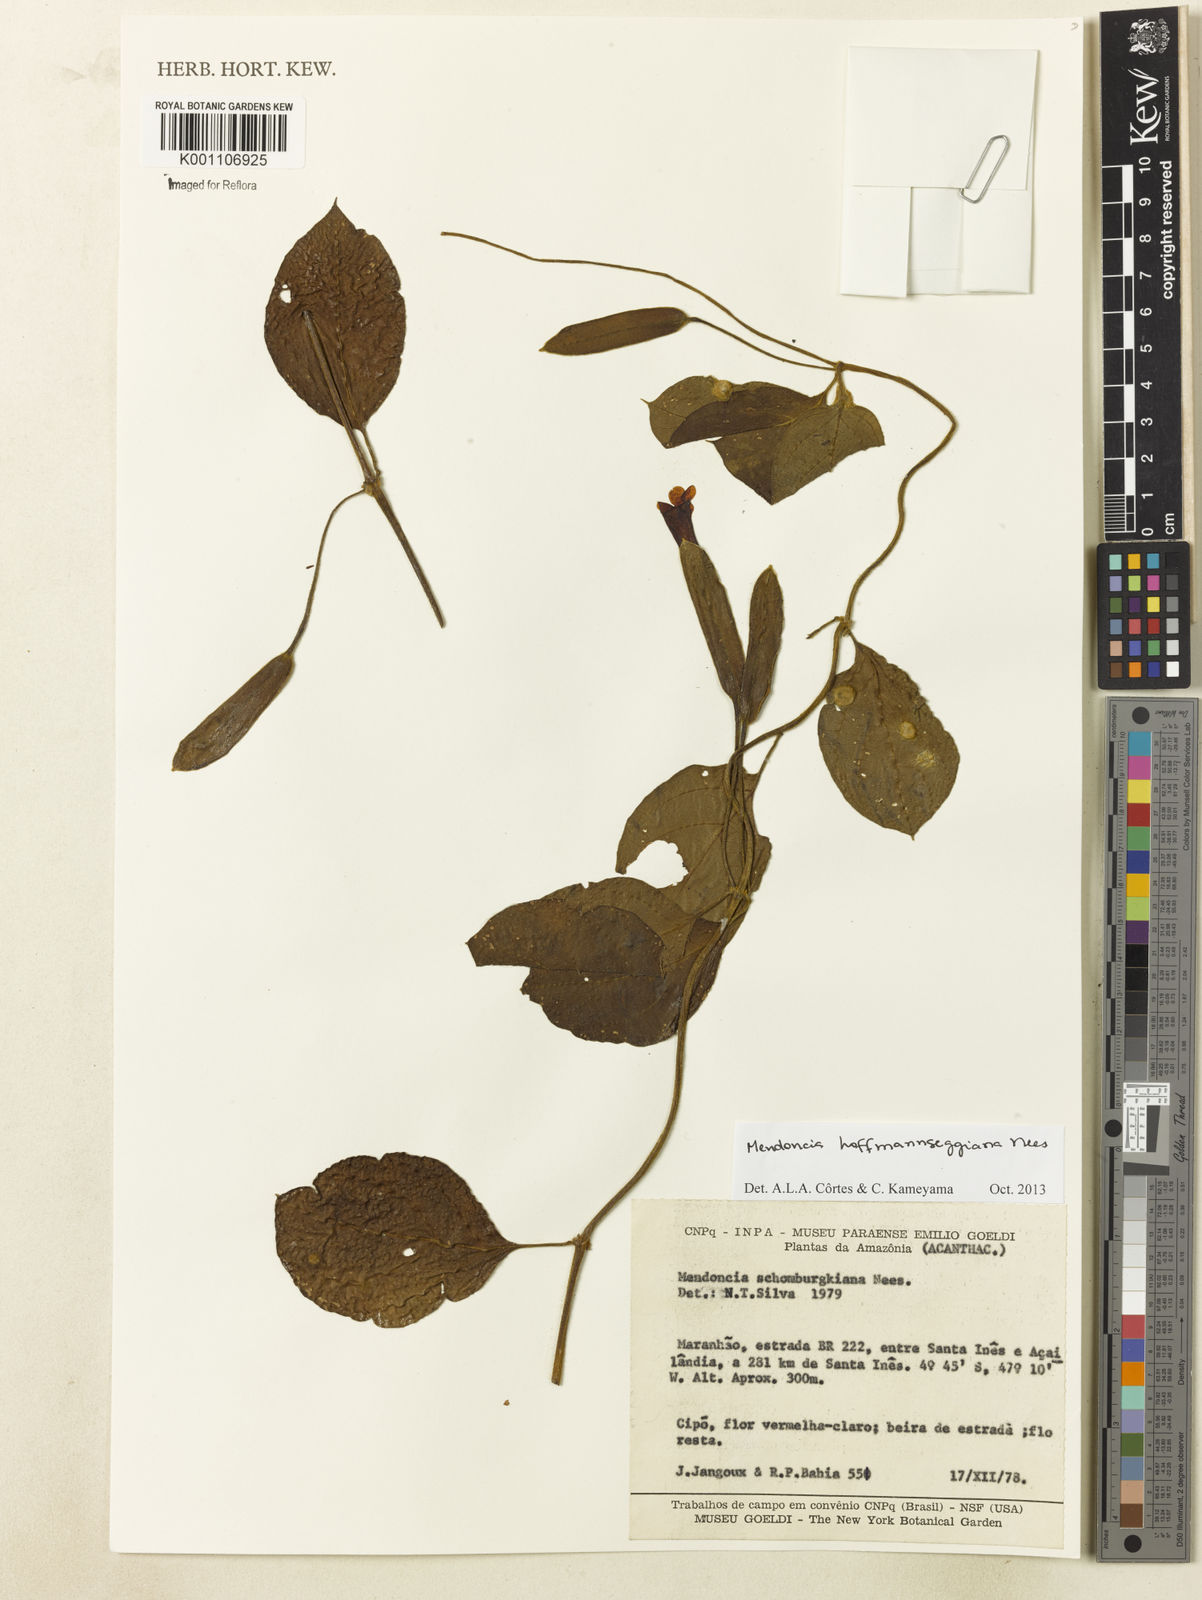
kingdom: Plantae
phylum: Tracheophyta
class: Magnoliopsida
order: Lamiales
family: Acanthaceae
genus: Mendoncia
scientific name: Mendoncia hoffmannseggiana
